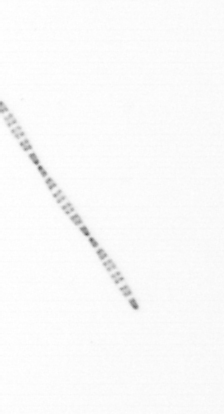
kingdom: Chromista
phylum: Ochrophyta
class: Bacillariophyceae
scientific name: Bacillariophyceae
